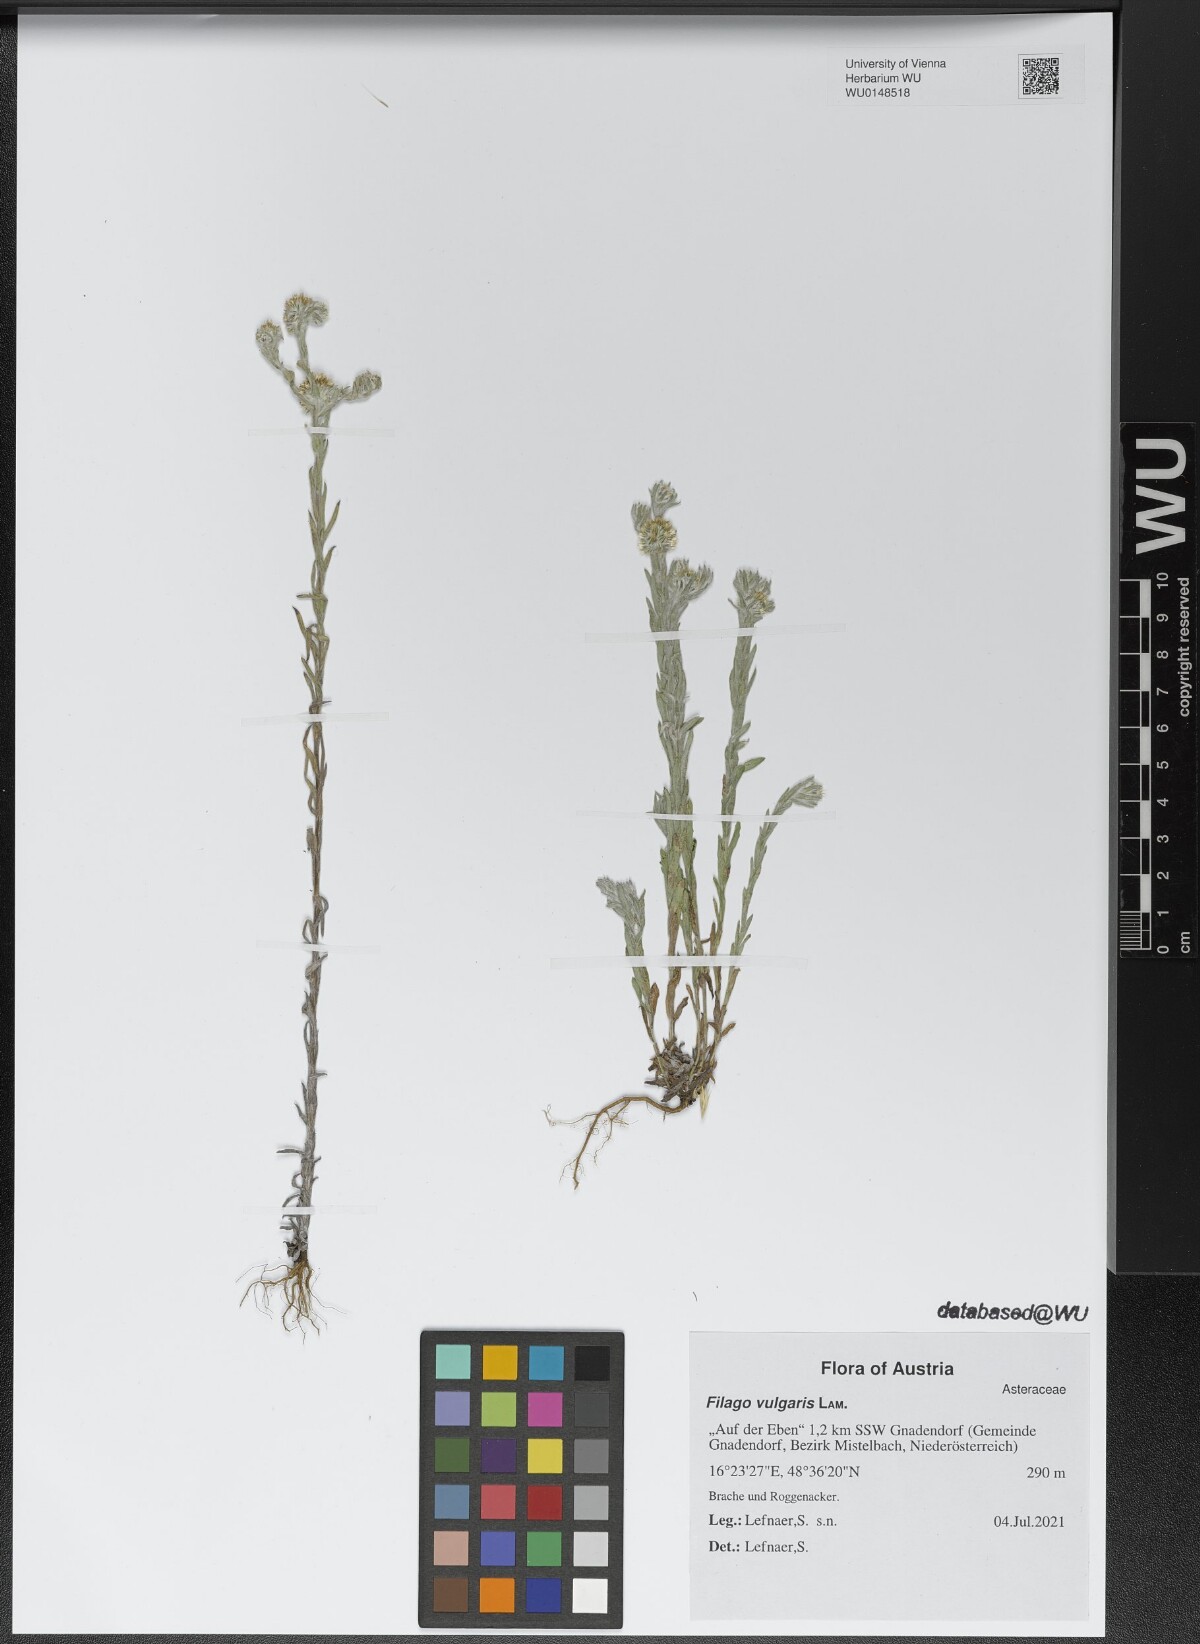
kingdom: Plantae
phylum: Tracheophyta
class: Magnoliopsida
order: Asterales
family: Asteraceae
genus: Filago
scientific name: Filago germanica
